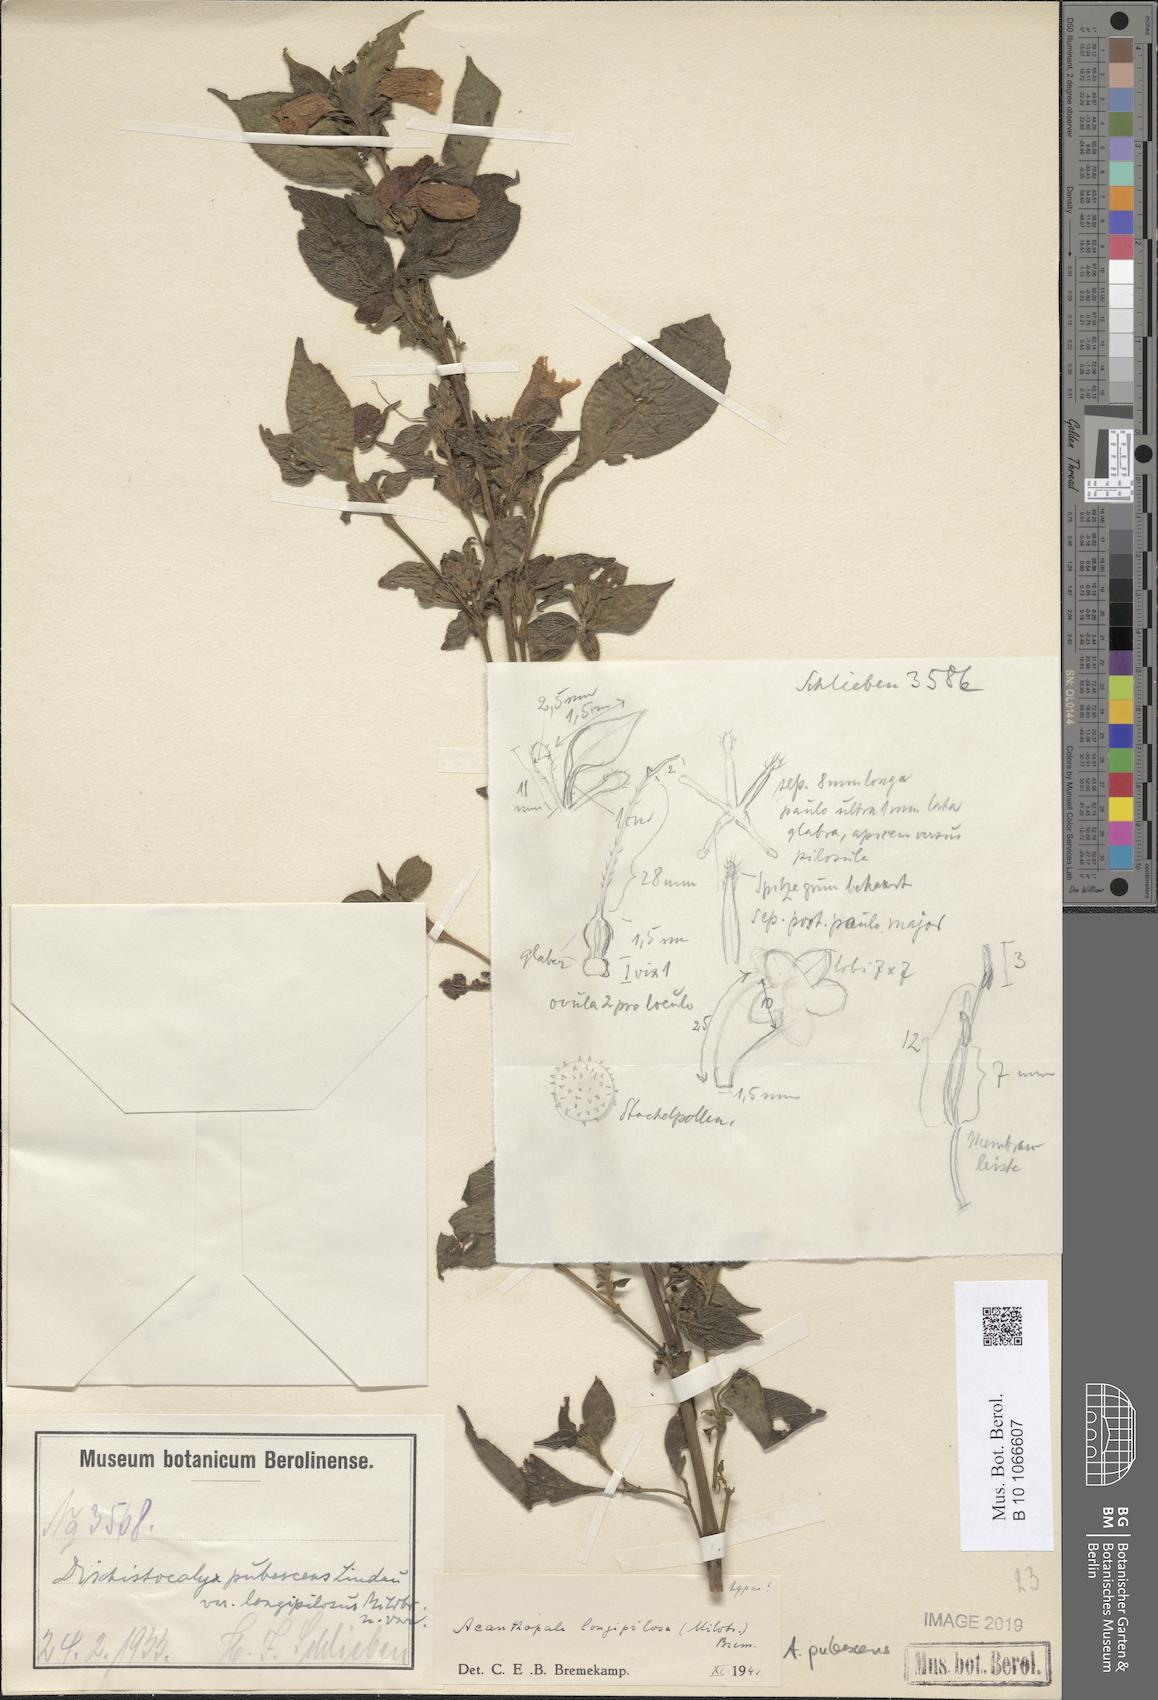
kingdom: Plantae
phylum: Tracheophyta
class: Magnoliopsida
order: Lamiales
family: Acanthaceae
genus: Acanthopale
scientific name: Acanthopale pubescens
